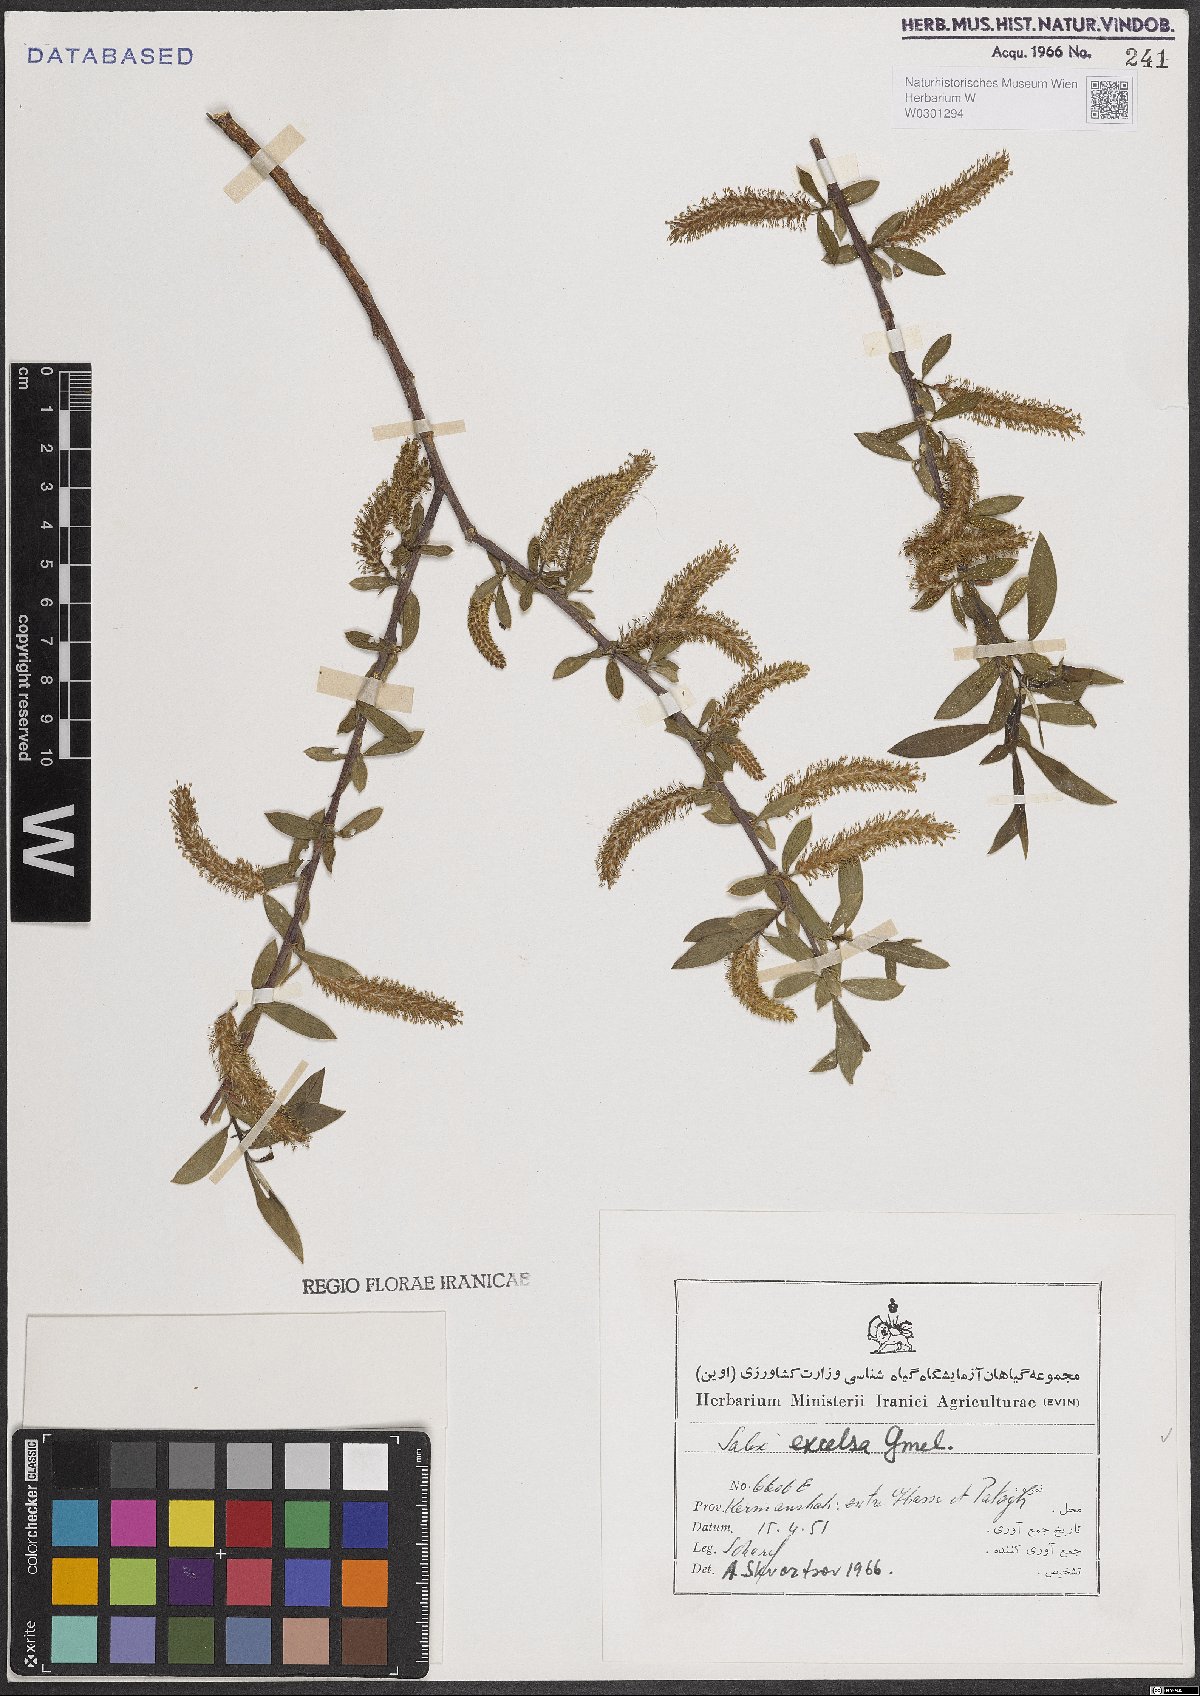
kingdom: Plantae
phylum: Tracheophyta
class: Magnoliopsida
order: Malpighiales
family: Salicaceae
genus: Salix
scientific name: Salix excelsa
